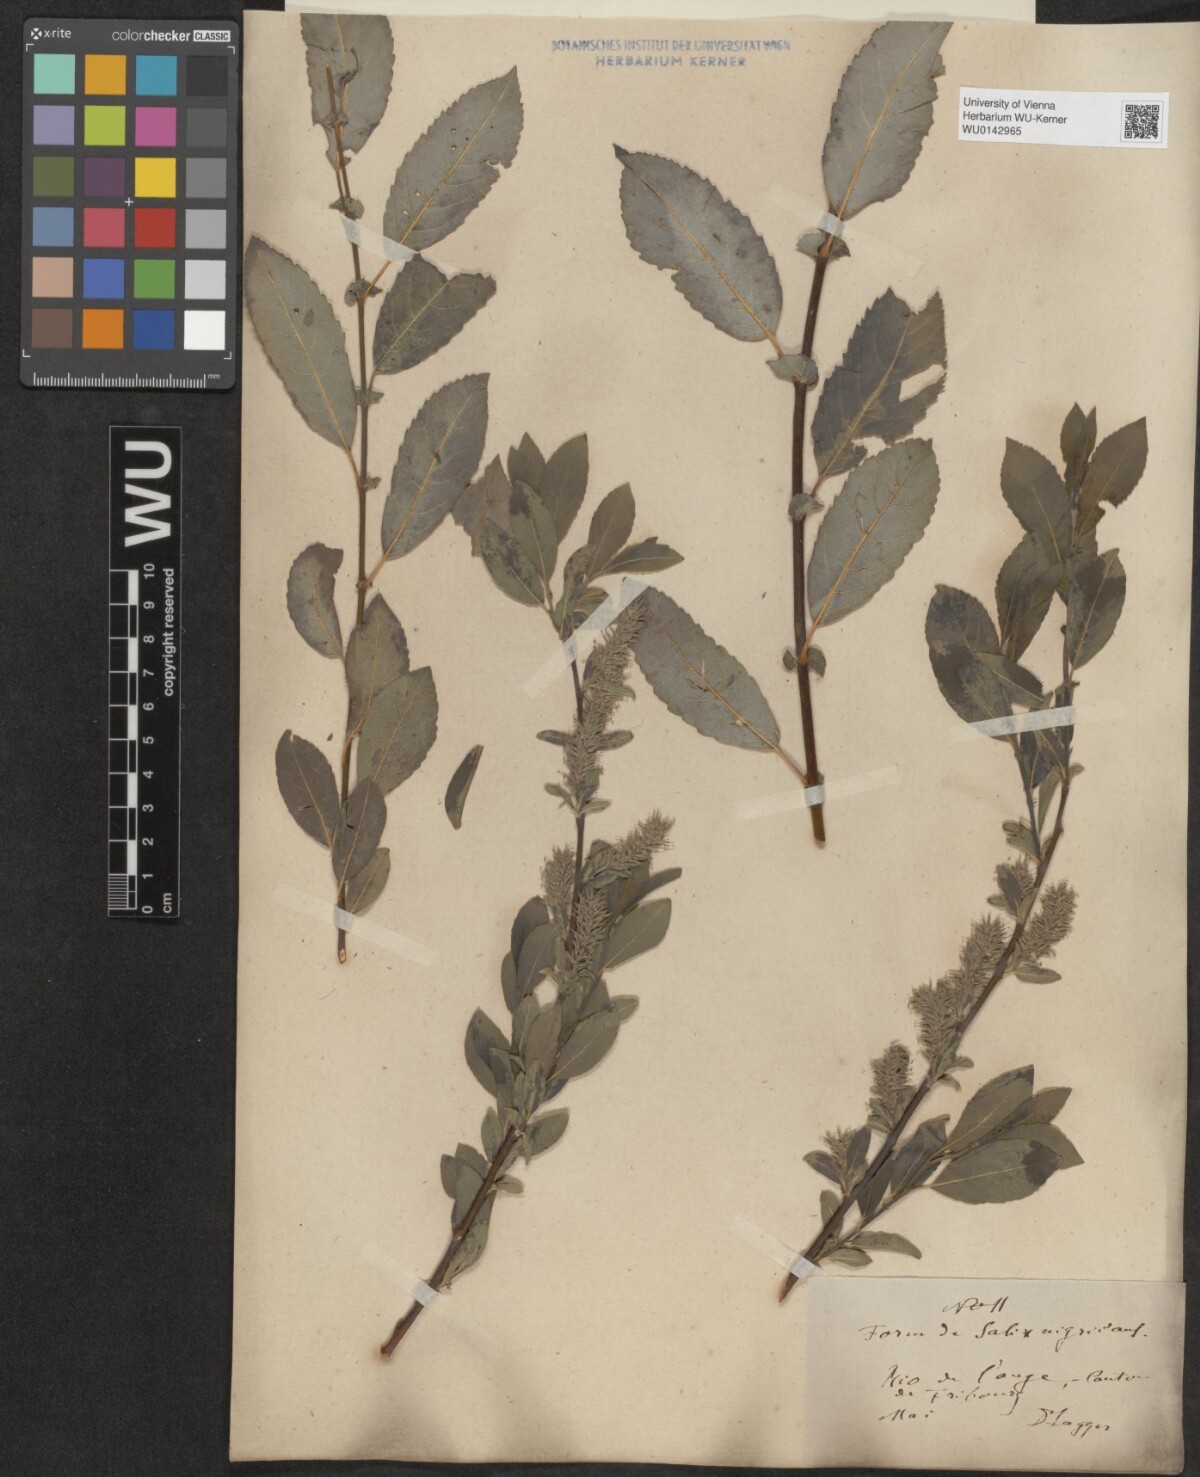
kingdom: Plantae
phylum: Tracheophyta
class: Magnoliopsida
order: Malpighiales
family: Salicaceae
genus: Salix
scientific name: Salix myrsinifolia
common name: Dark-leaved willow
